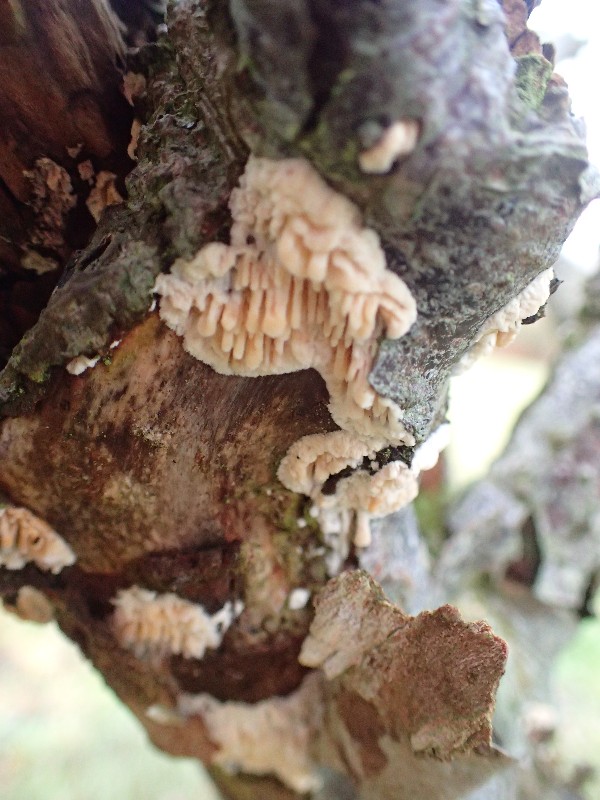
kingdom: Fungi
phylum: Basidiomycota
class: Agaricomycetes
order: Hymenochaetales
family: Schizoporaceae
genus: Xylodon
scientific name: Xylodon radula
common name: grovtandet kalkskind
